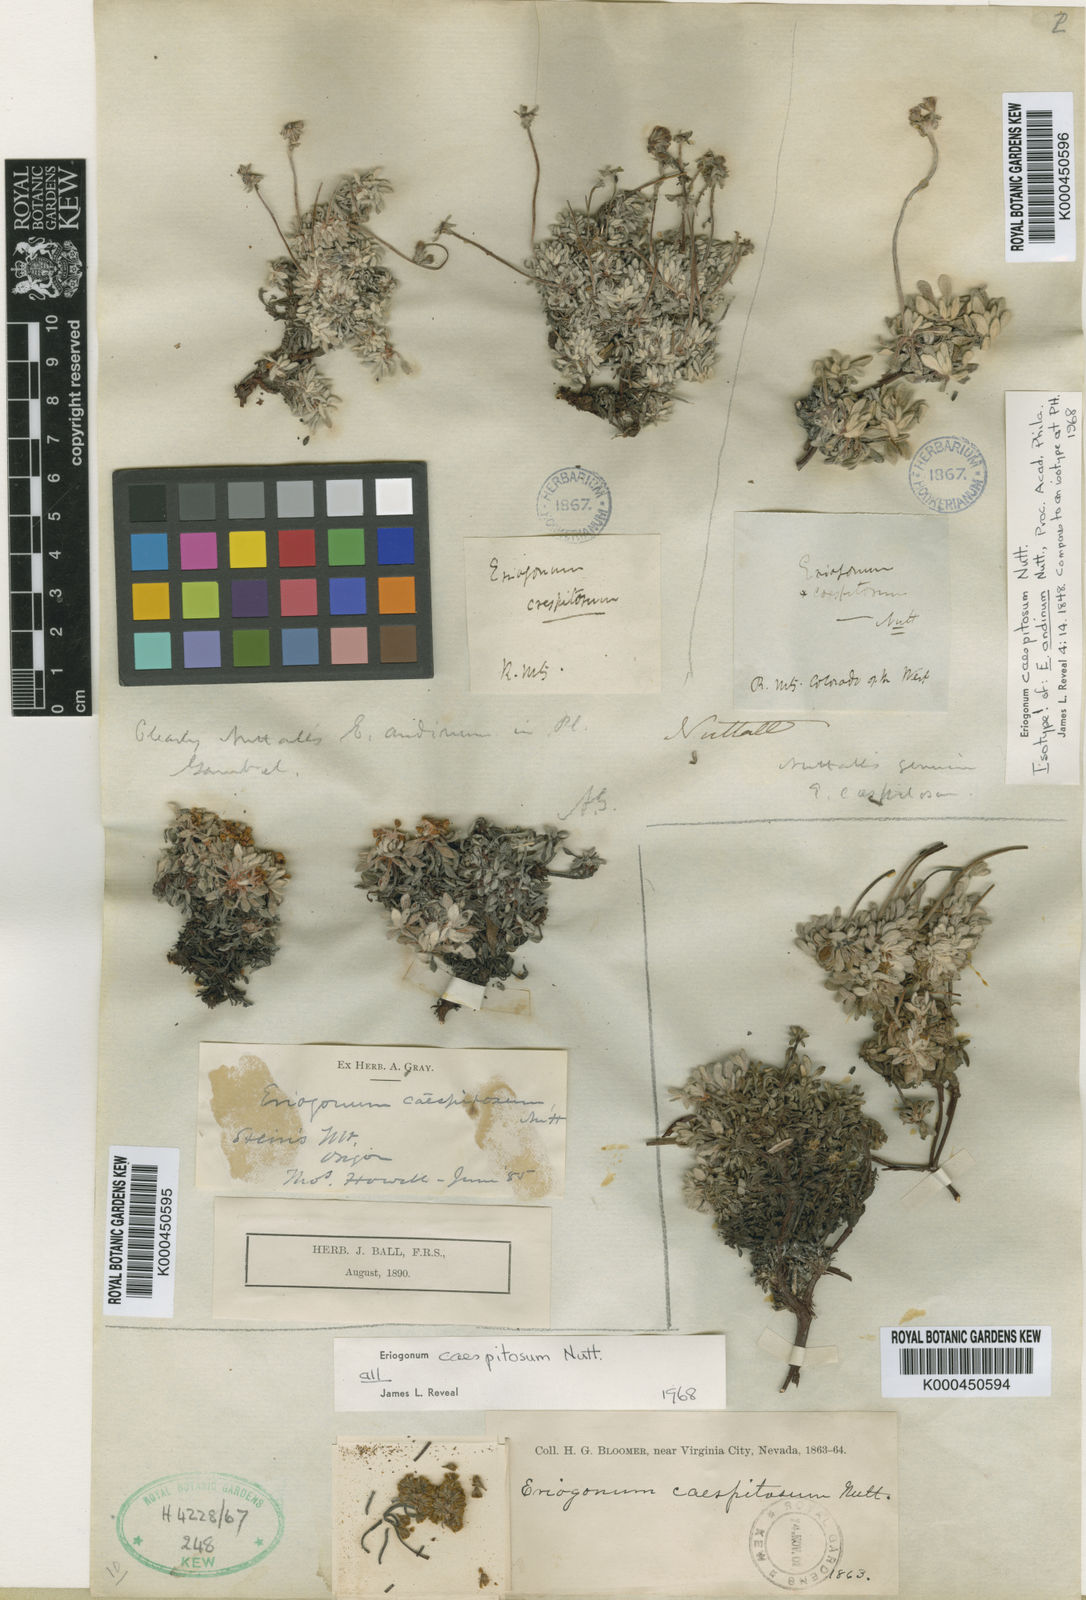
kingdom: Plantae
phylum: Tracheophyta
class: Magnoliopsida
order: Caryophyllales
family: Polygonaceae
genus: Eriogonum
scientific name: Eriogonum caespitosum
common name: Matted wild buckwheat
